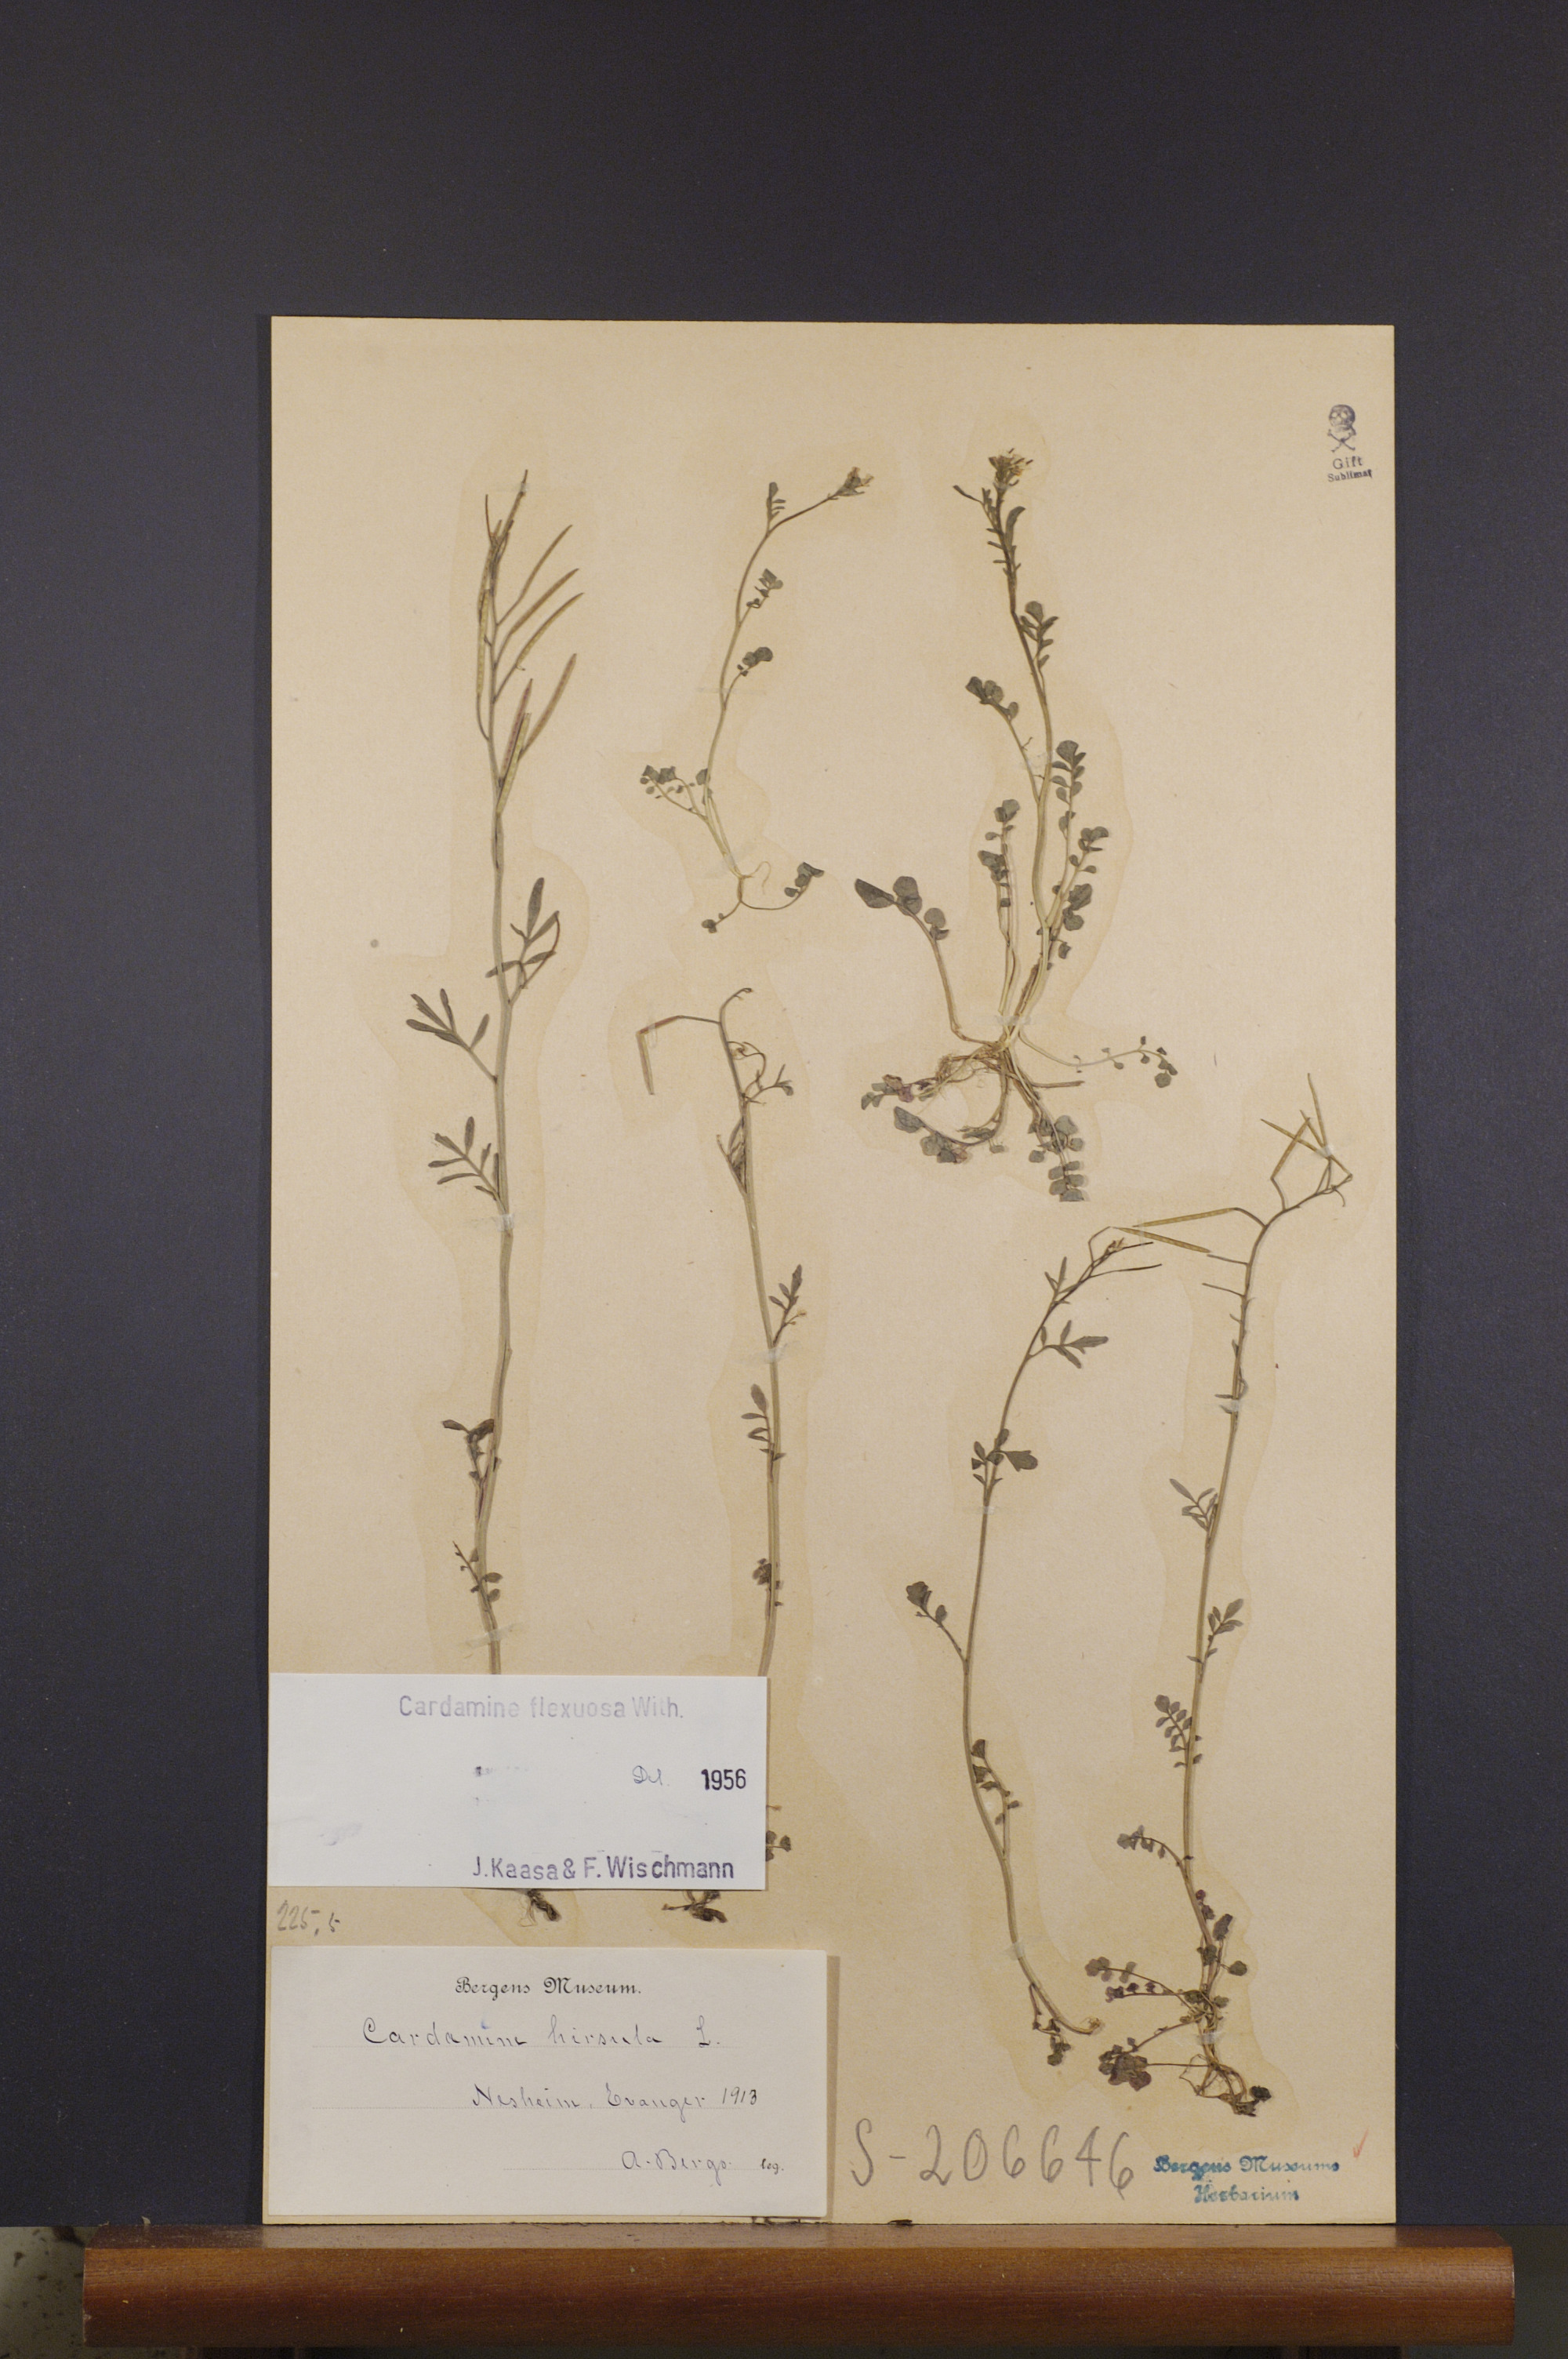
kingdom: Plantae
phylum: Tracheophyta
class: Magnoliopsida
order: Brassicales
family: Brassicaceae
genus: Cardamine
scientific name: Cardamine flexuosa
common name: Woodland bittercress
